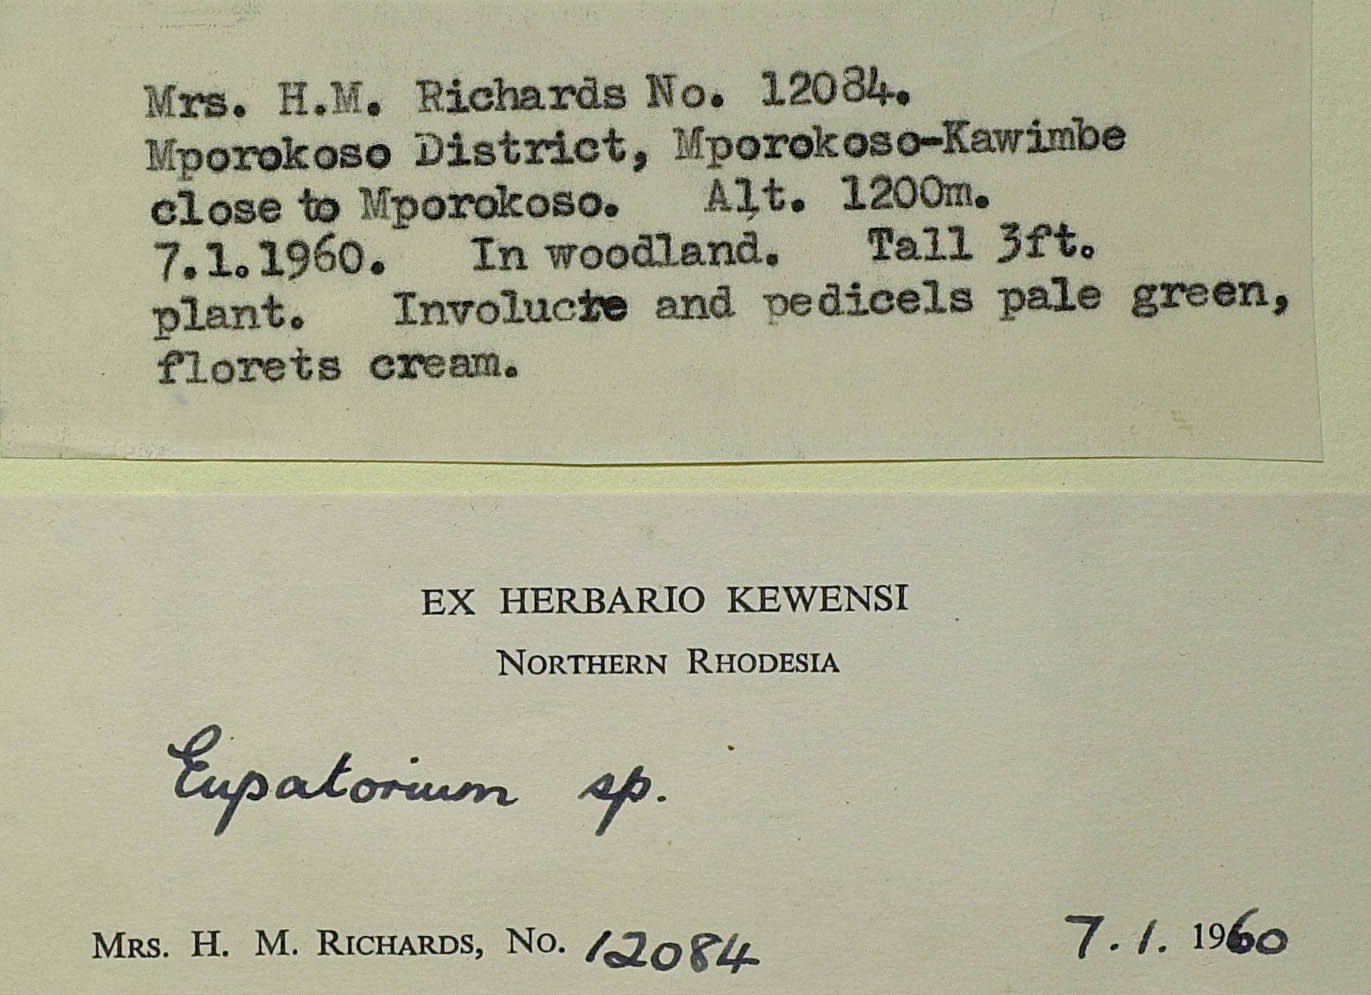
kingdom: Plantae
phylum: Tracheophyta
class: Magnoliopsida
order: Asterales
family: Asteraceae
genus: Criscianthus
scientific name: Criscianthus zambiensis
